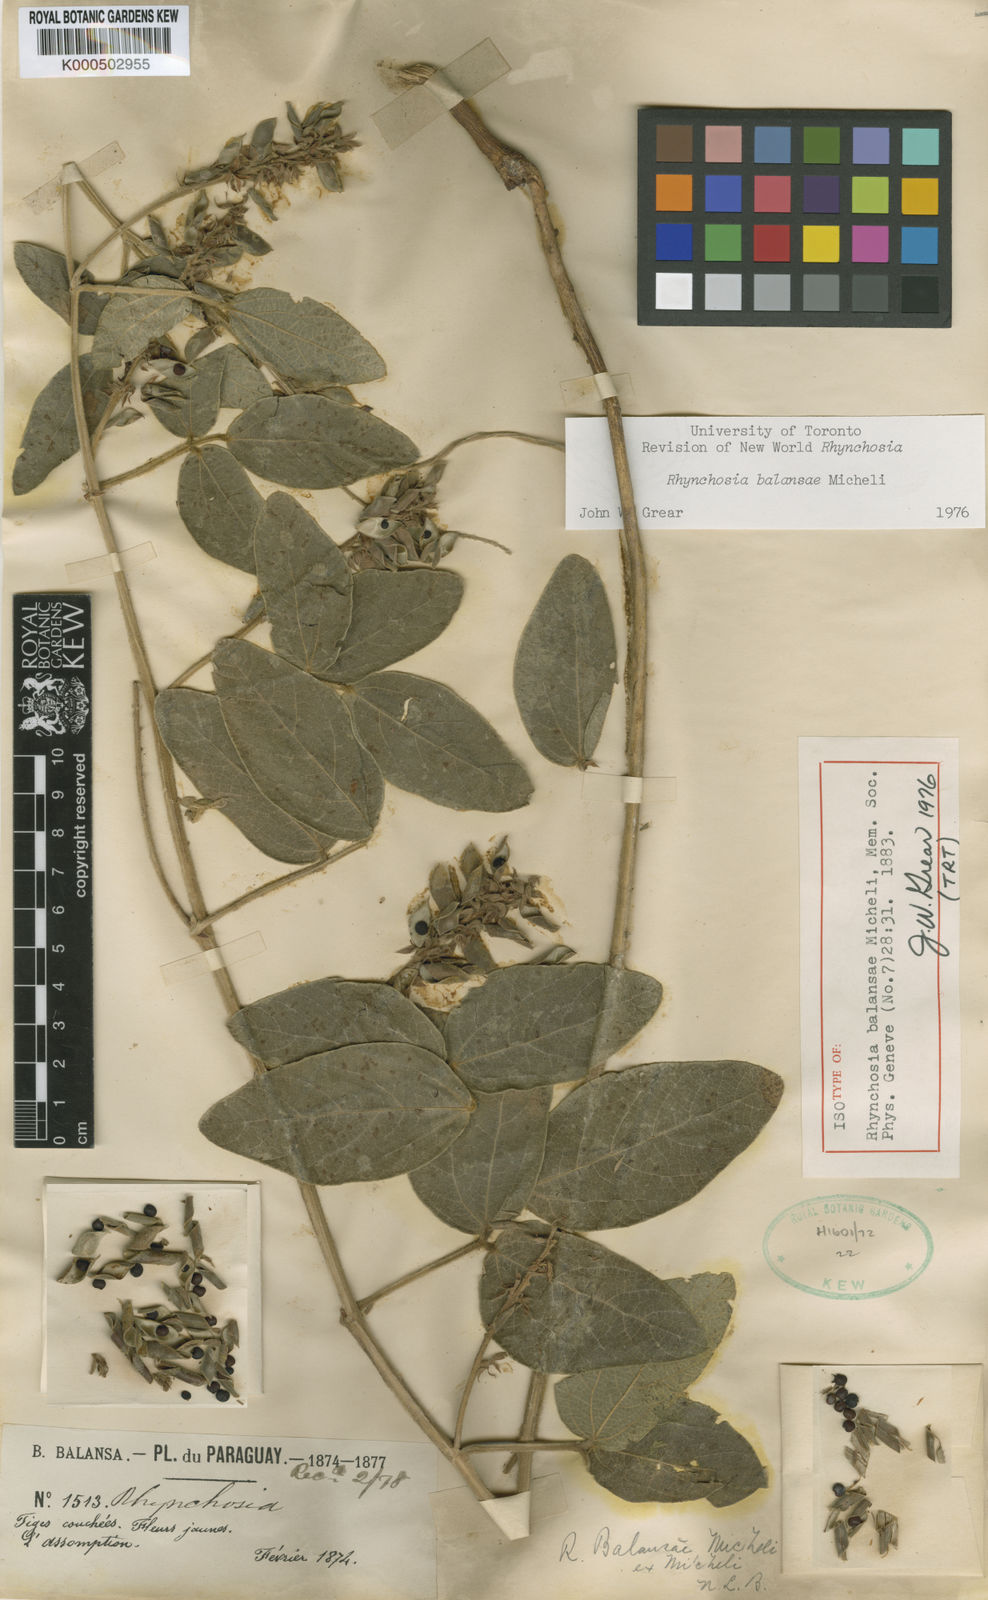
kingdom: Plantae
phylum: Tracheophyta
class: Magnoliopsida
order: Fabales
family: Fabaceae
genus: Rhynchosia
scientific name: Rhynchosia balansae
